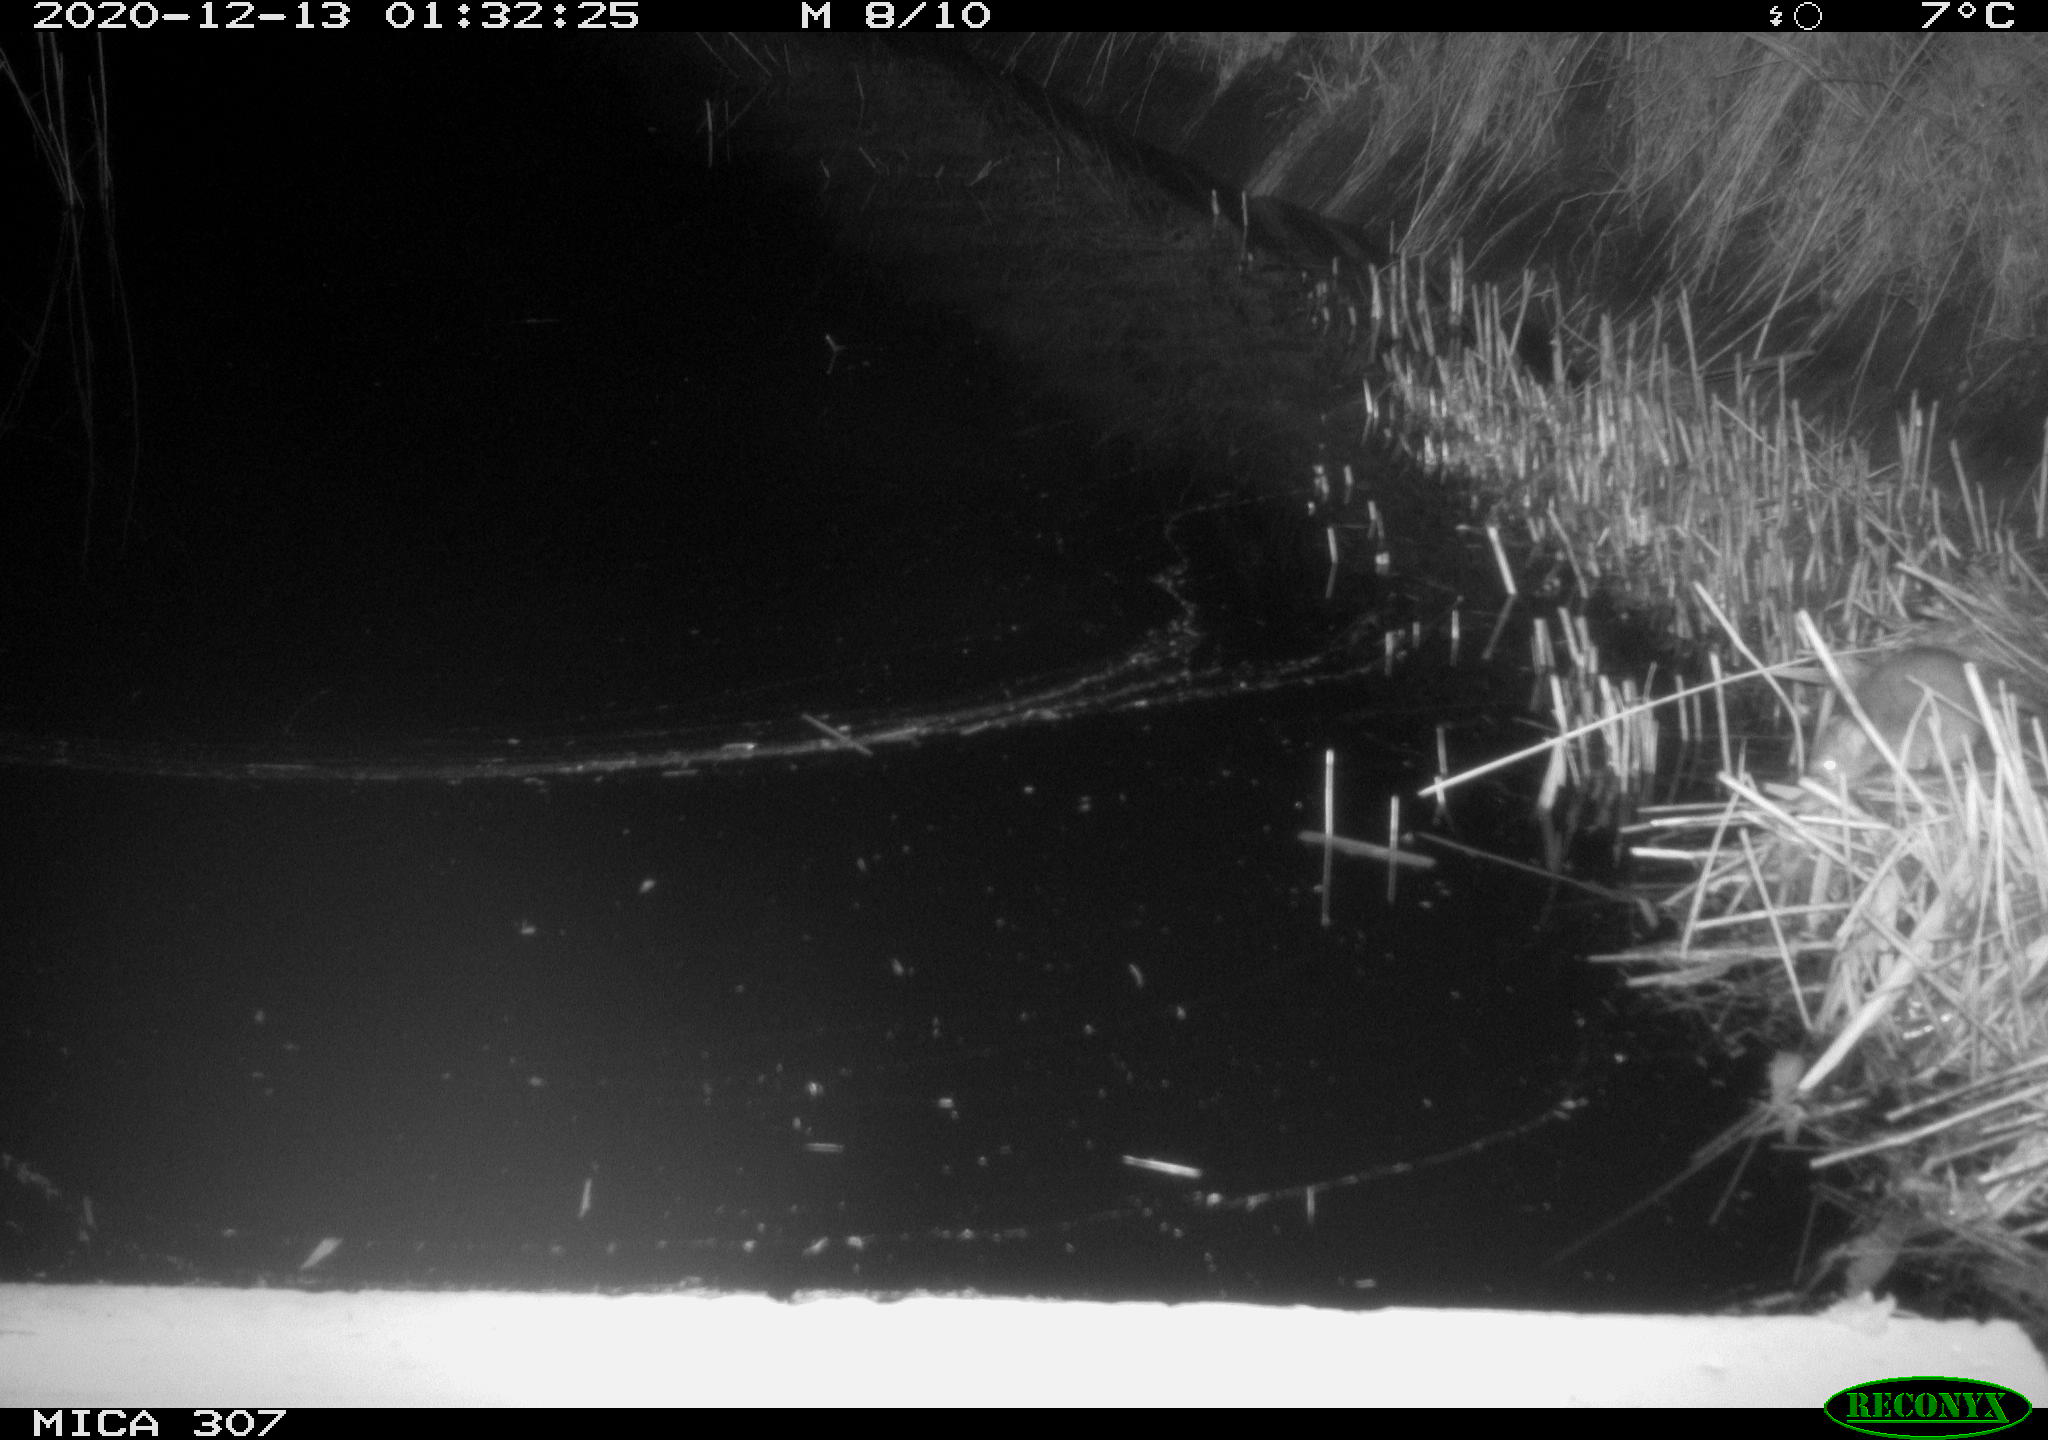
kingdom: Animalia
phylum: Chordata
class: Mammalia
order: Rodentia
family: Muridae
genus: Rattus
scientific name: Rattus norvegicus
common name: Brown rat
